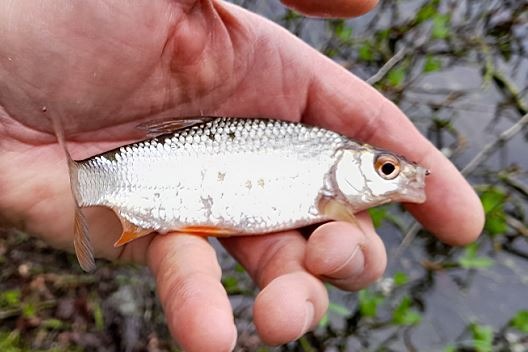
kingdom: Animalia
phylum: Chordata
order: Cypriniformes
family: Cyprinidae
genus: Rutilus
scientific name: Rutilus rutilus
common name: Skalle
